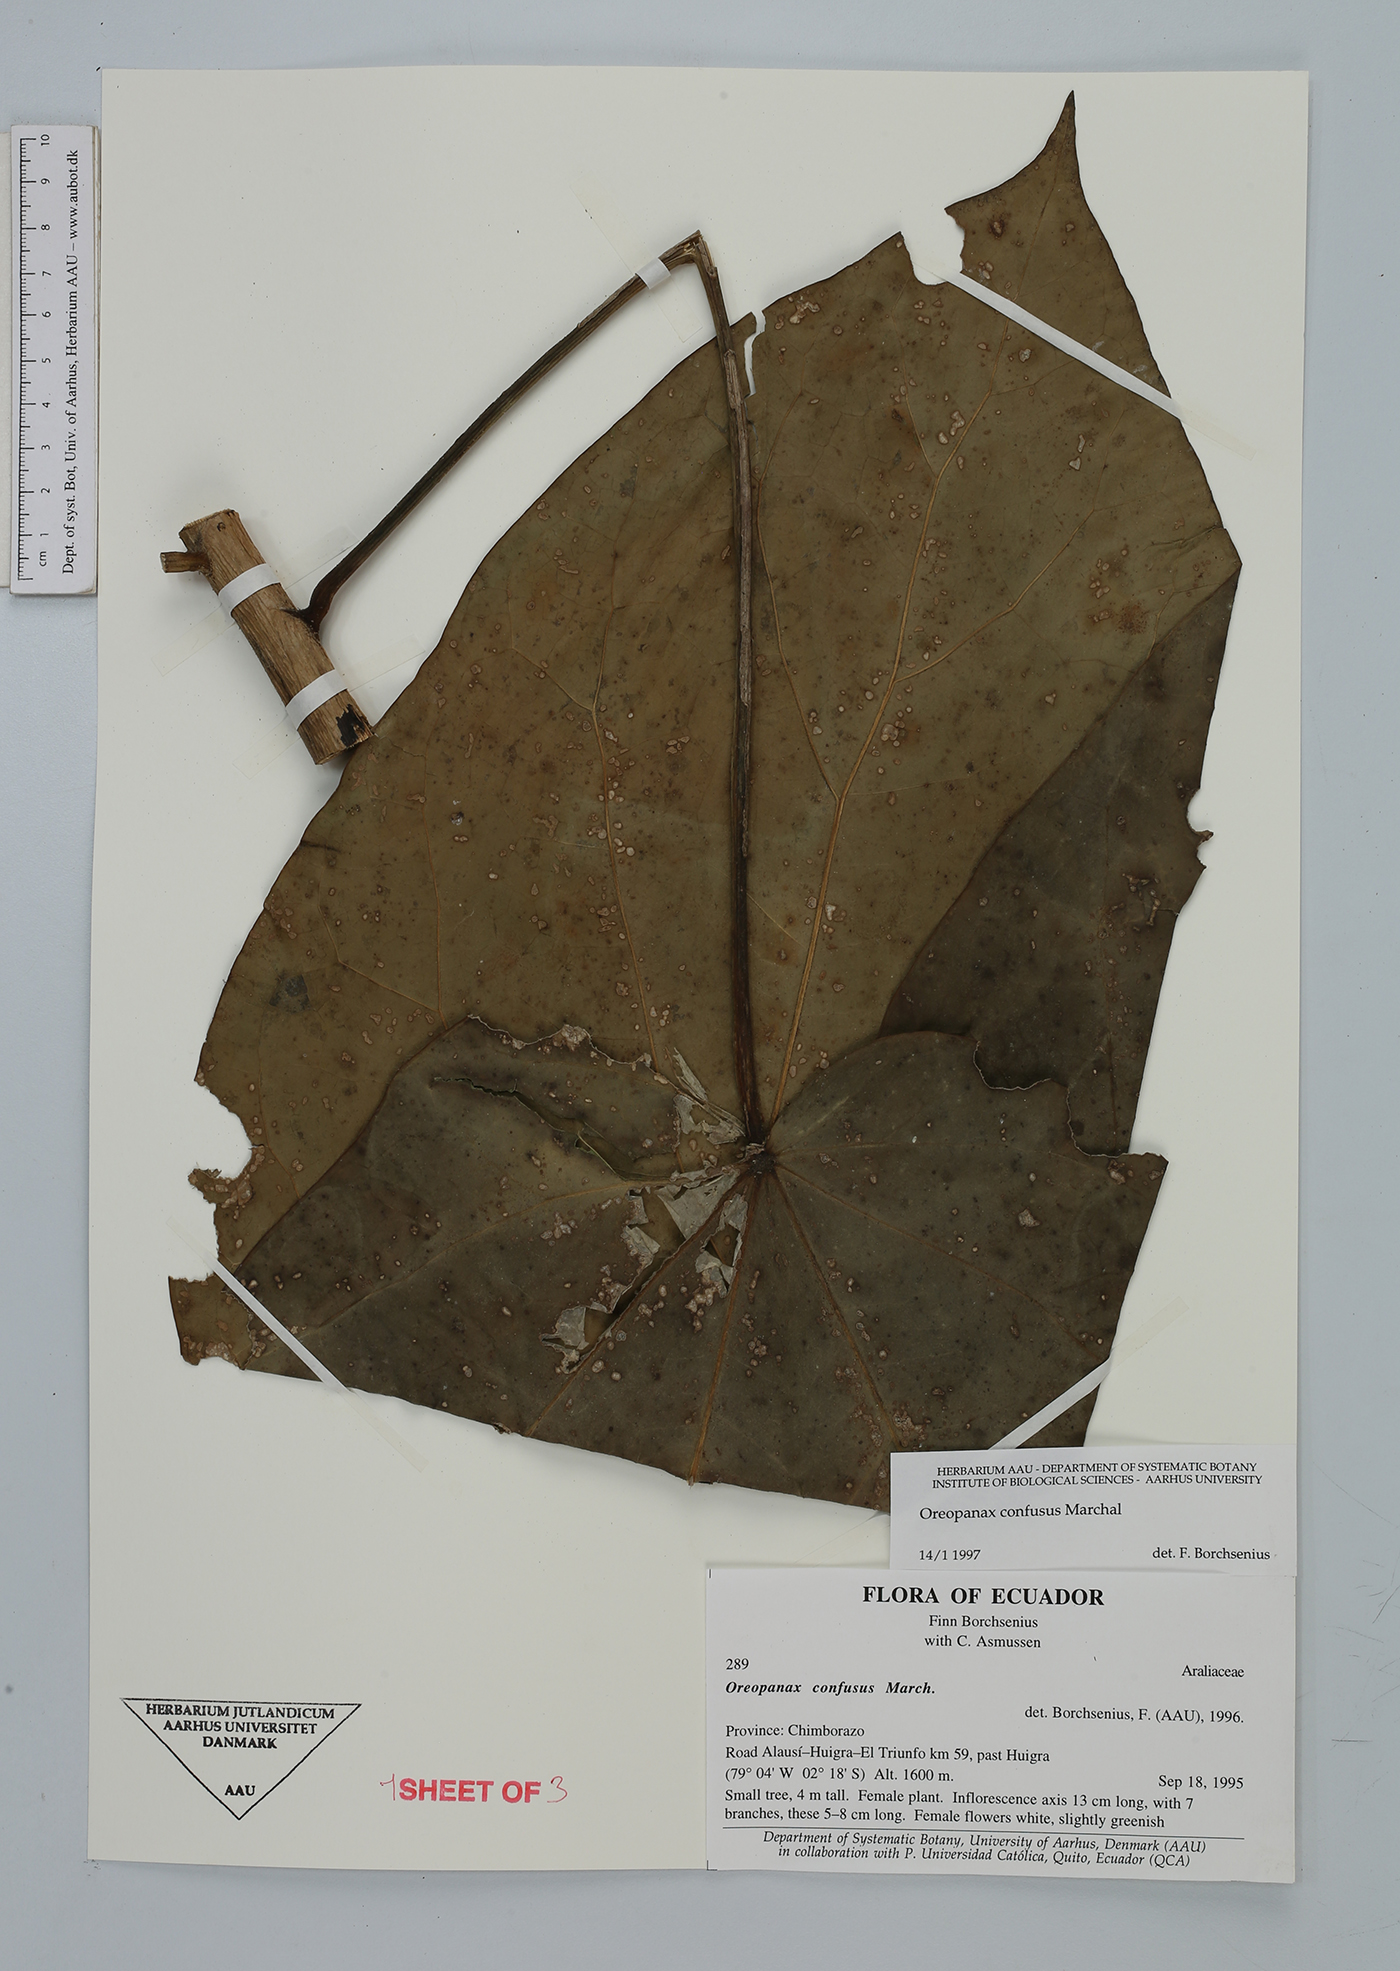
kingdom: Plantae
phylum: Tracheophyta
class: Magnoliopsida
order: Apiales
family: Araliaceae
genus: Oreopanax
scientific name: Oreopanax confusus
